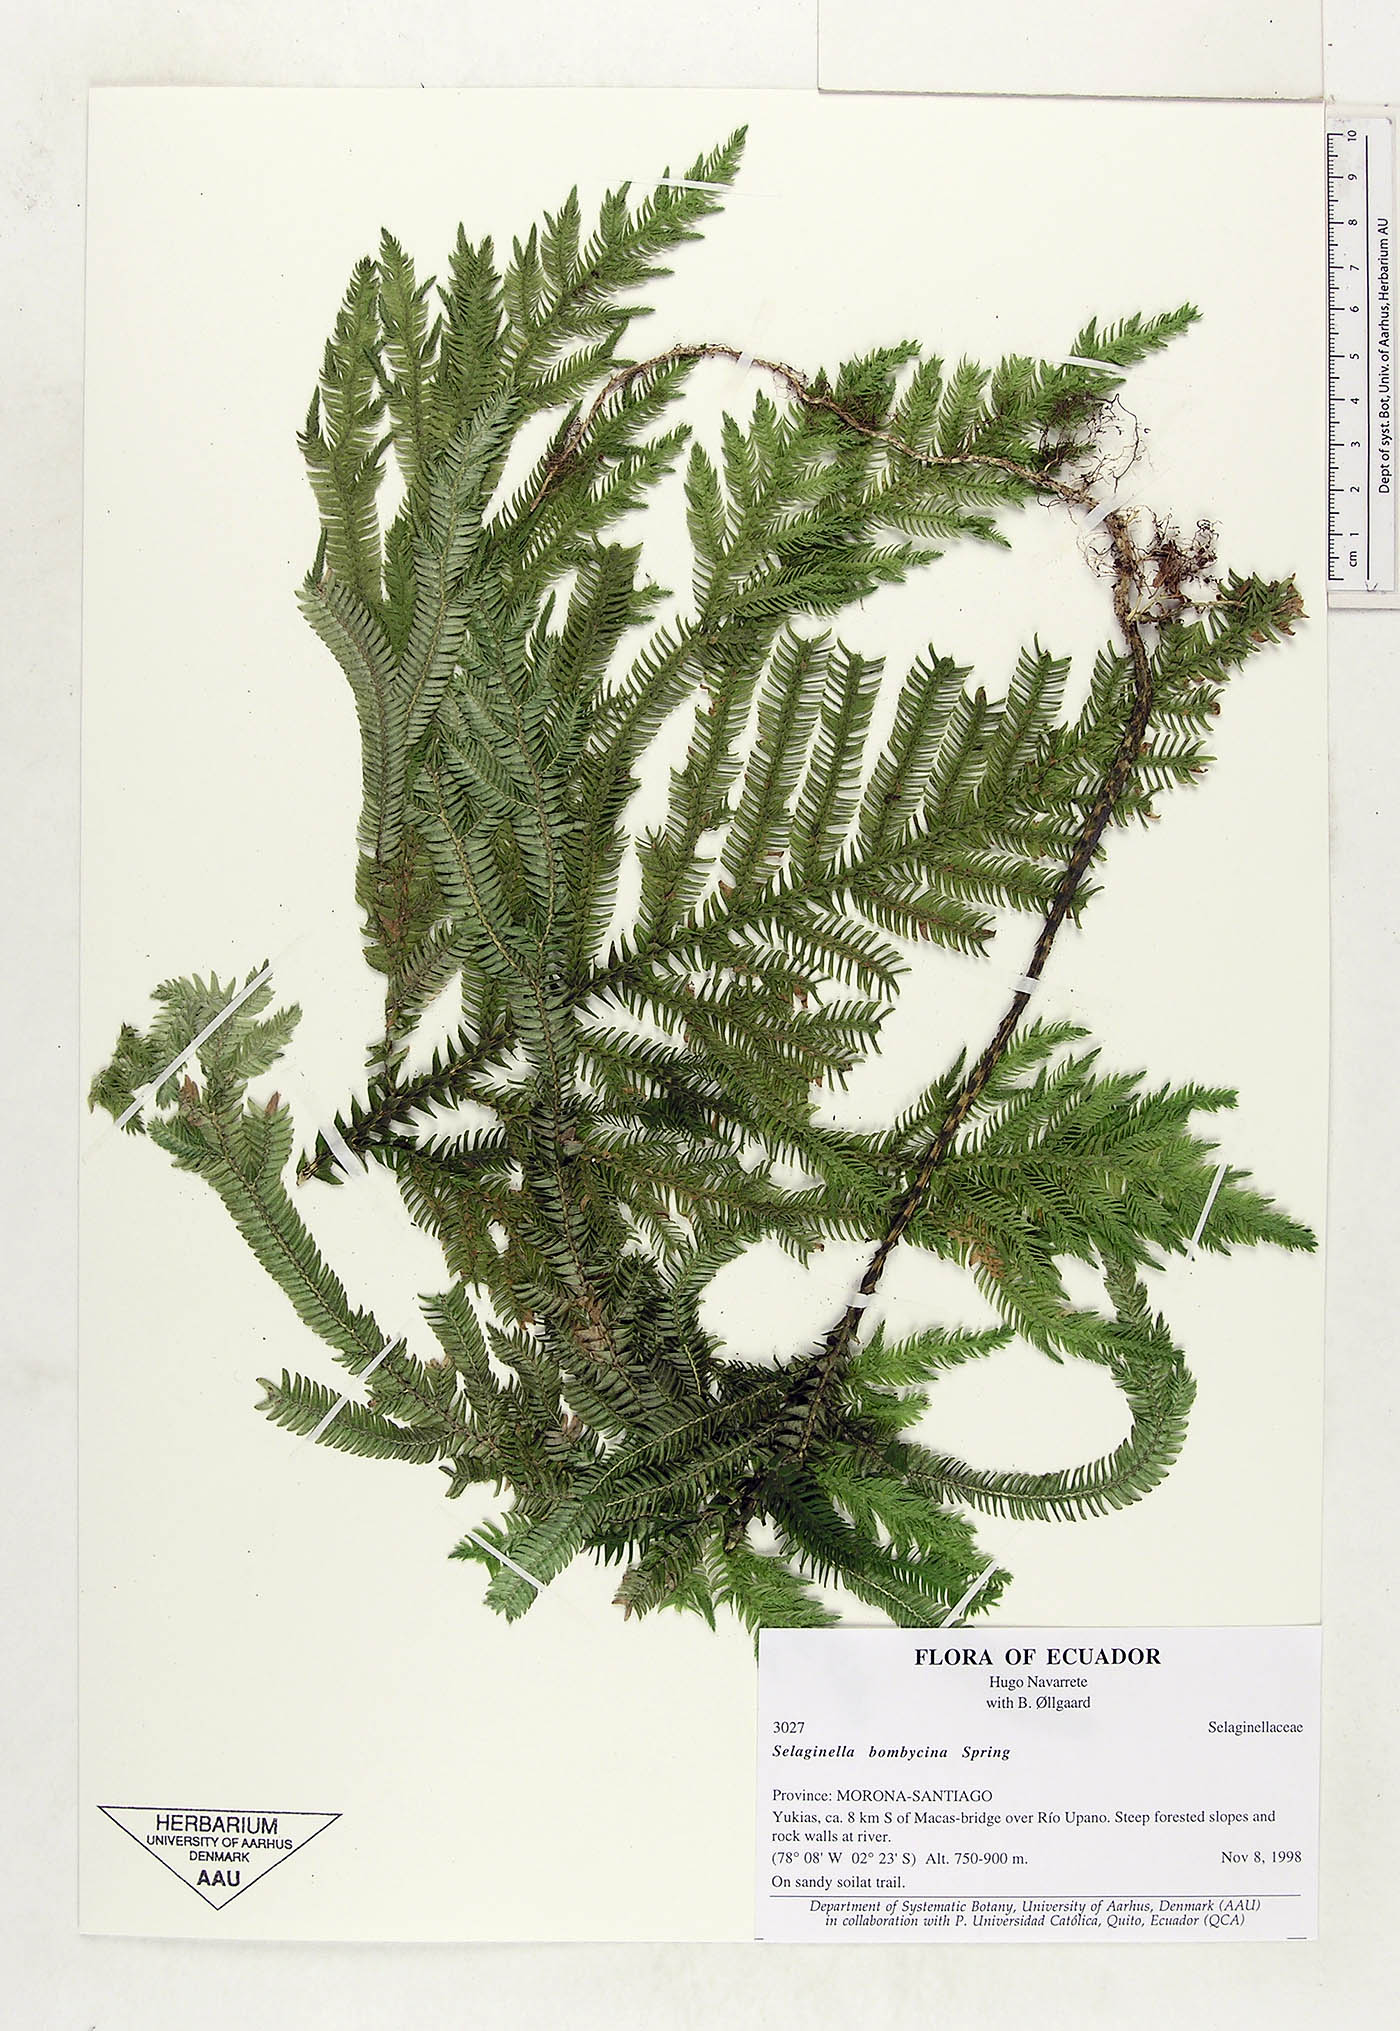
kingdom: Plantae
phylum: Tracheophyta
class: Lycopodiopsida
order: Selaginellales
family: Selaginellaceae
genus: Selaginella
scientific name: Selaginella bombycina
